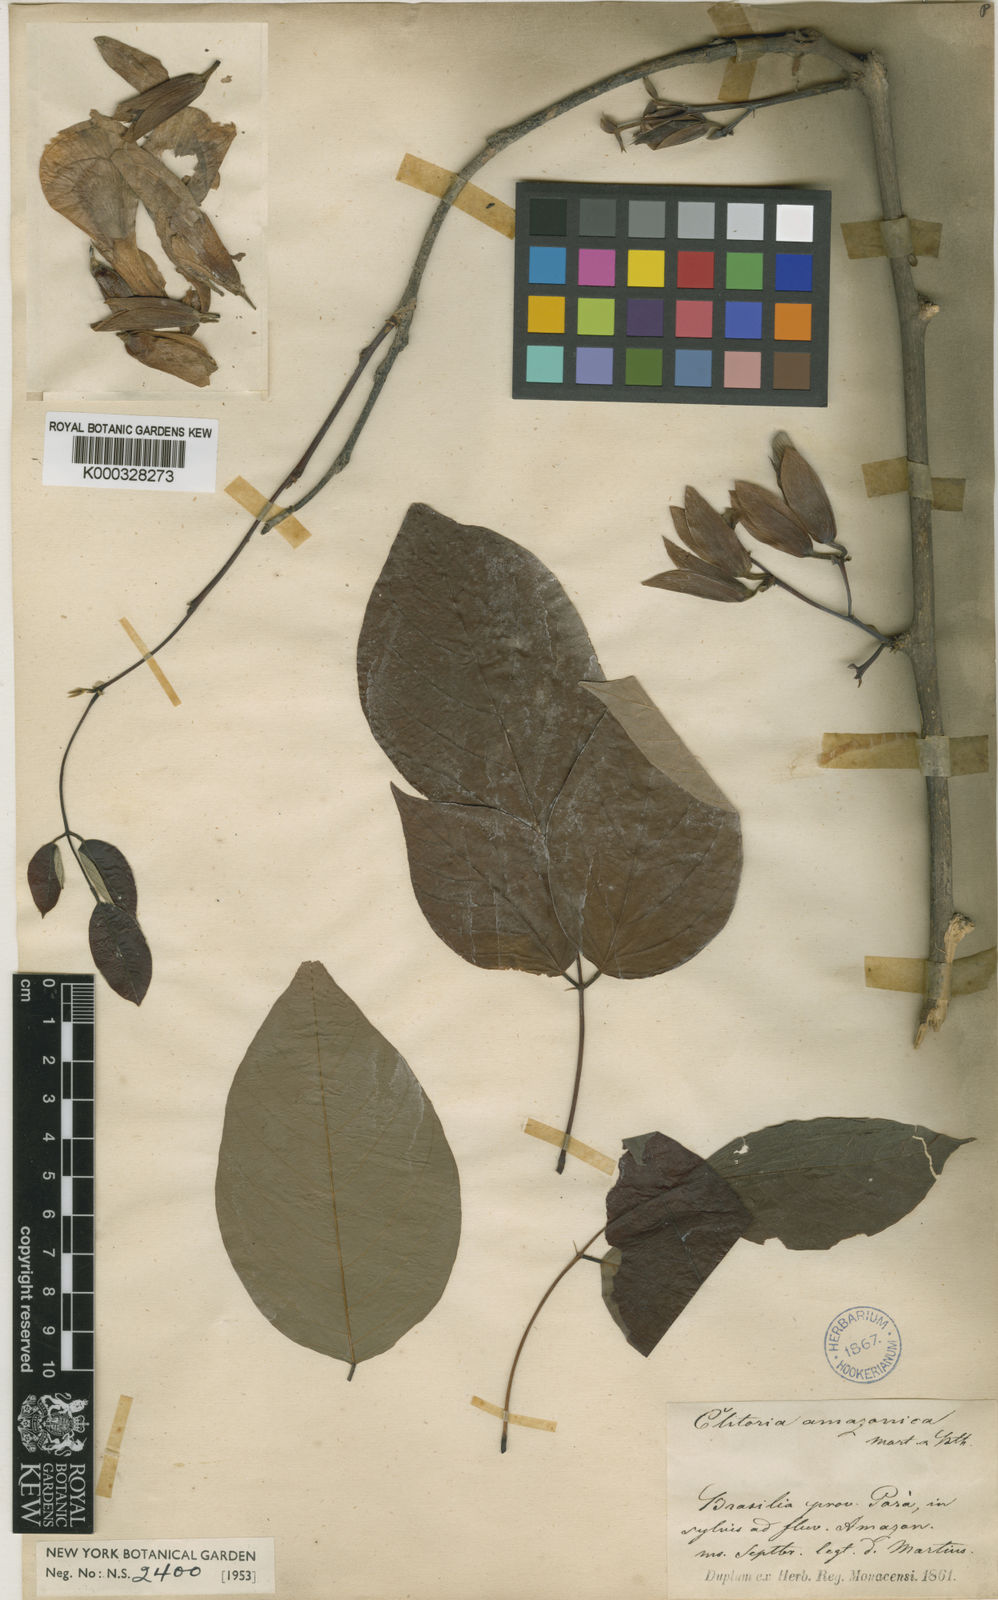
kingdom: Plantae
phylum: Tracheophyta
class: Magnoliopsida
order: Fabales
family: Fabaceae
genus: Clitoria
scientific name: Clitoria amazonum
